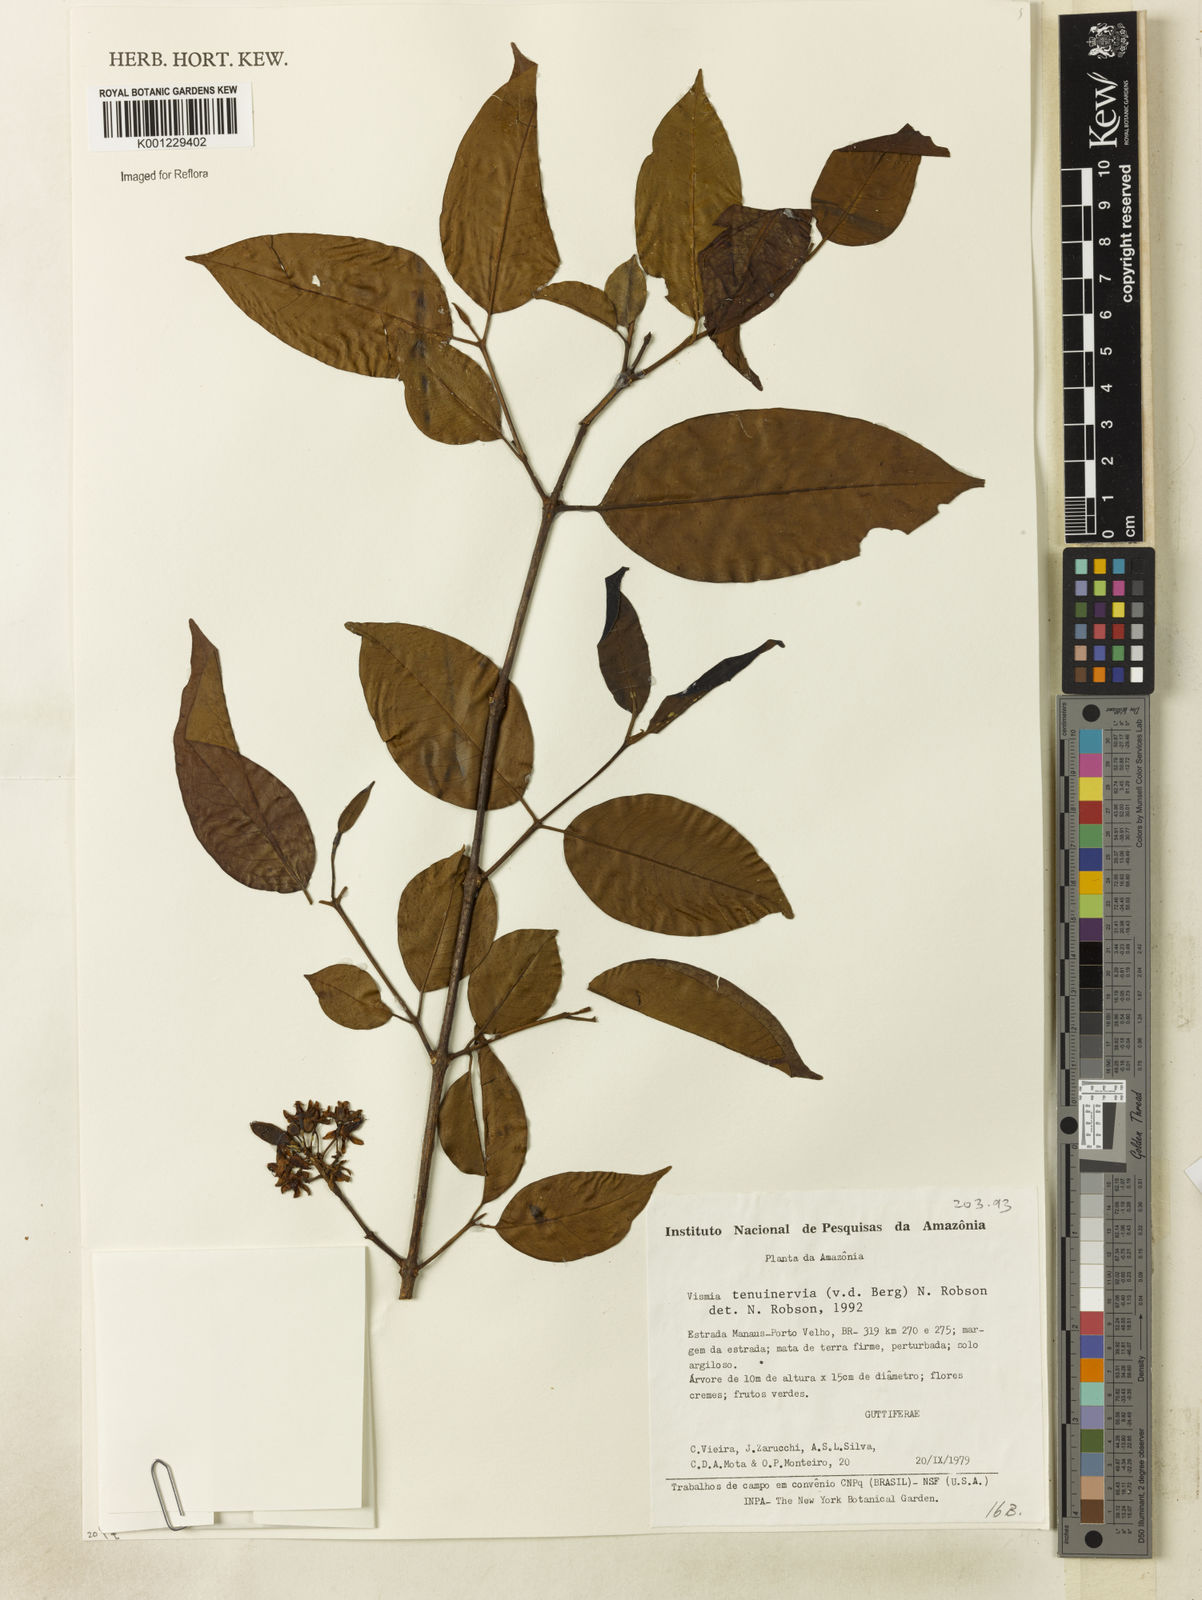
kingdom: Plantae
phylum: Tracheophyta
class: Magnoliopsida
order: Malpighiales
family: Hypericaceae
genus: Vismia
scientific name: Vismia tenuinervia
